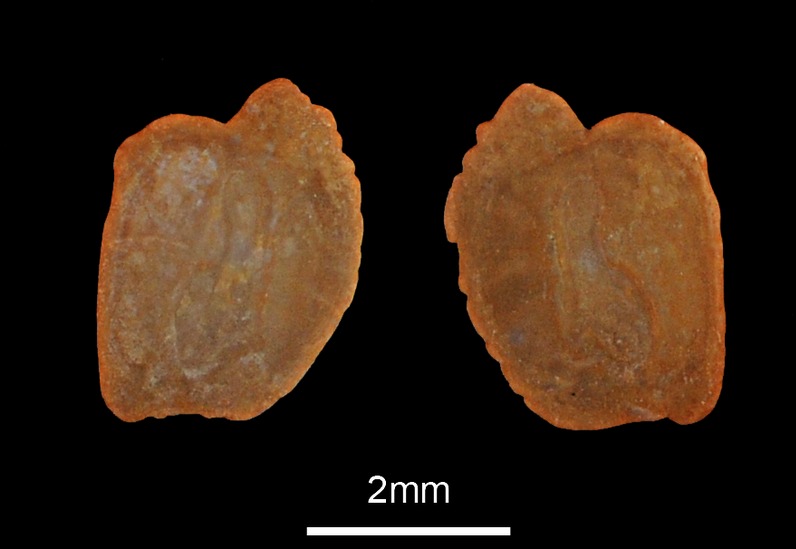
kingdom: Animalia
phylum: Chordata
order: Perciformes
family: Gobiidae
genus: Gobius
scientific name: Gobius niger
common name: Black goby
